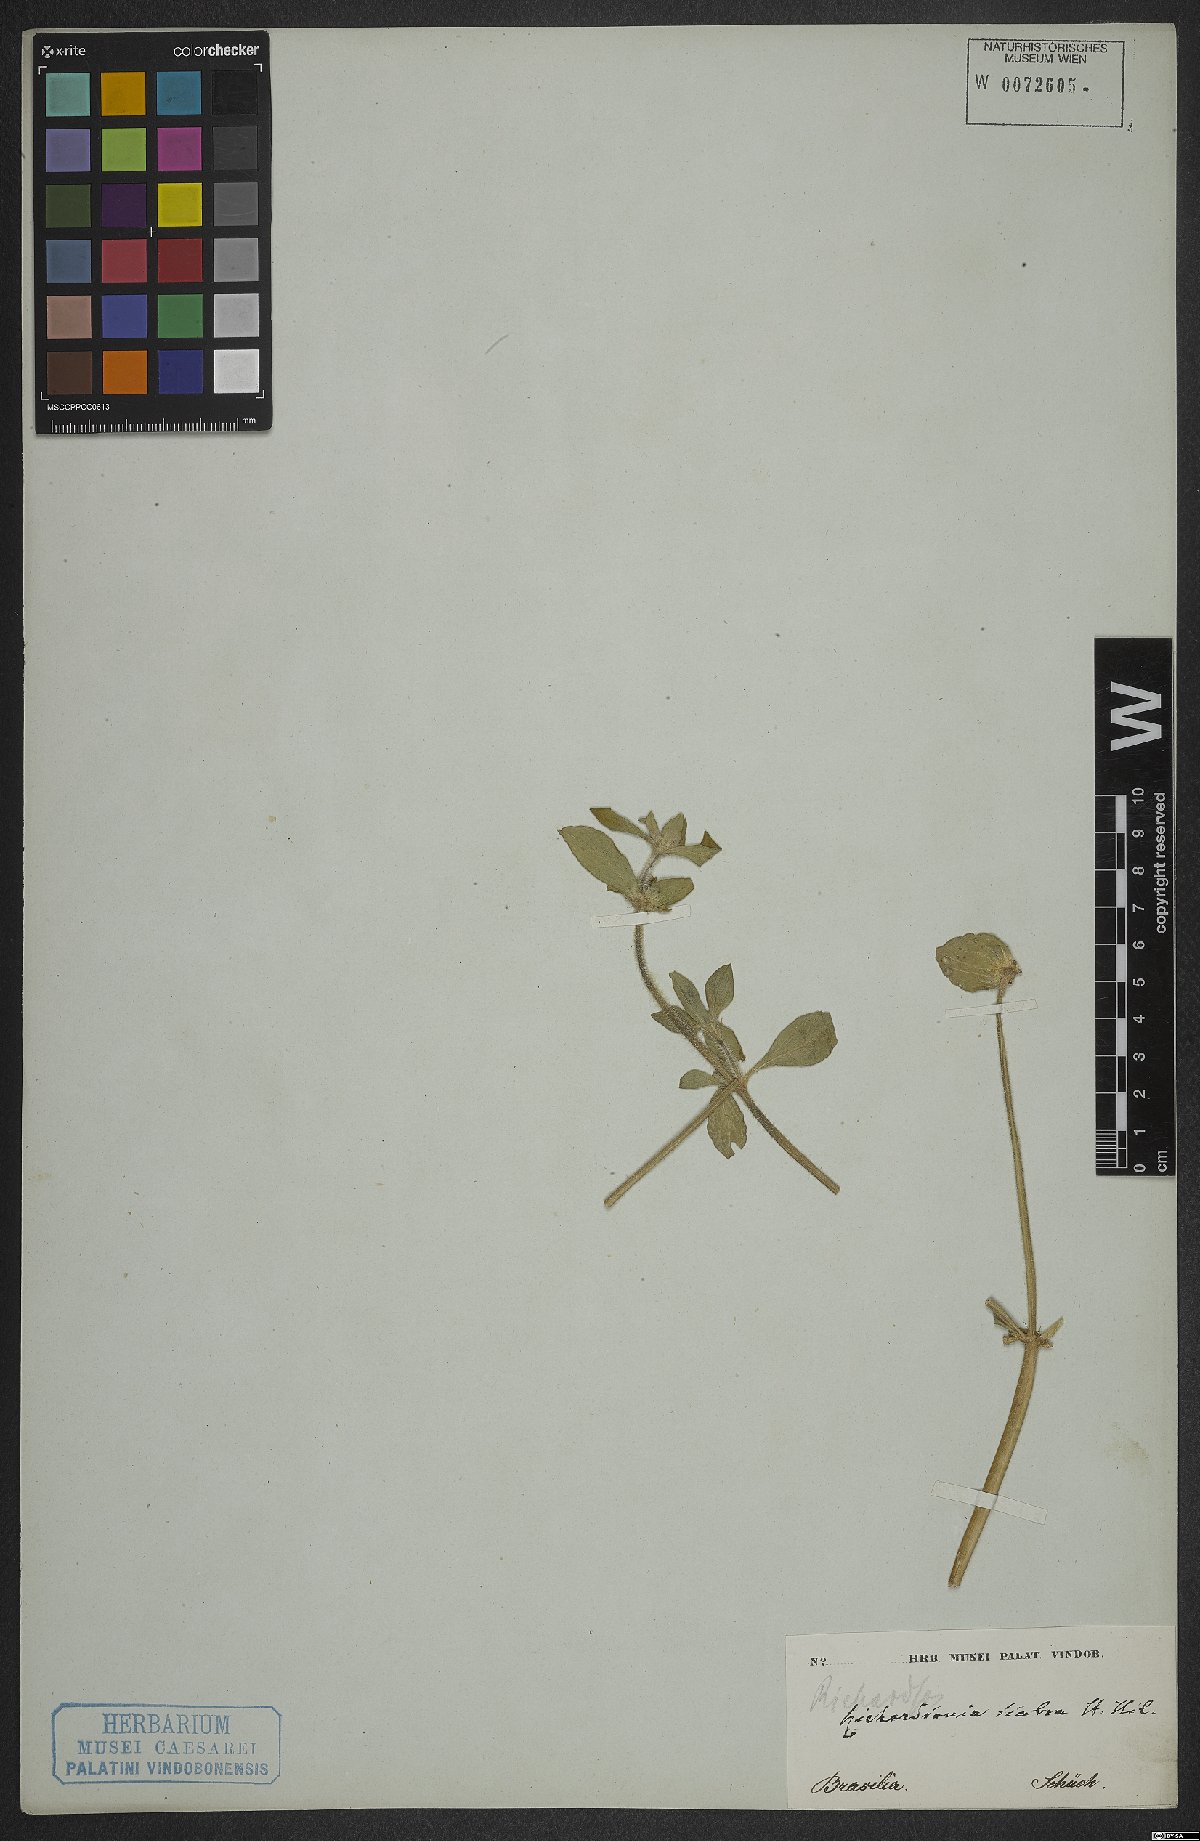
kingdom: Plantae
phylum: Tracheophyta
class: Magnoliopsida
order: Gentianales
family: Rubiaceae
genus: Richardia
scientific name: Richardia scabra
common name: Rough mexican clover
